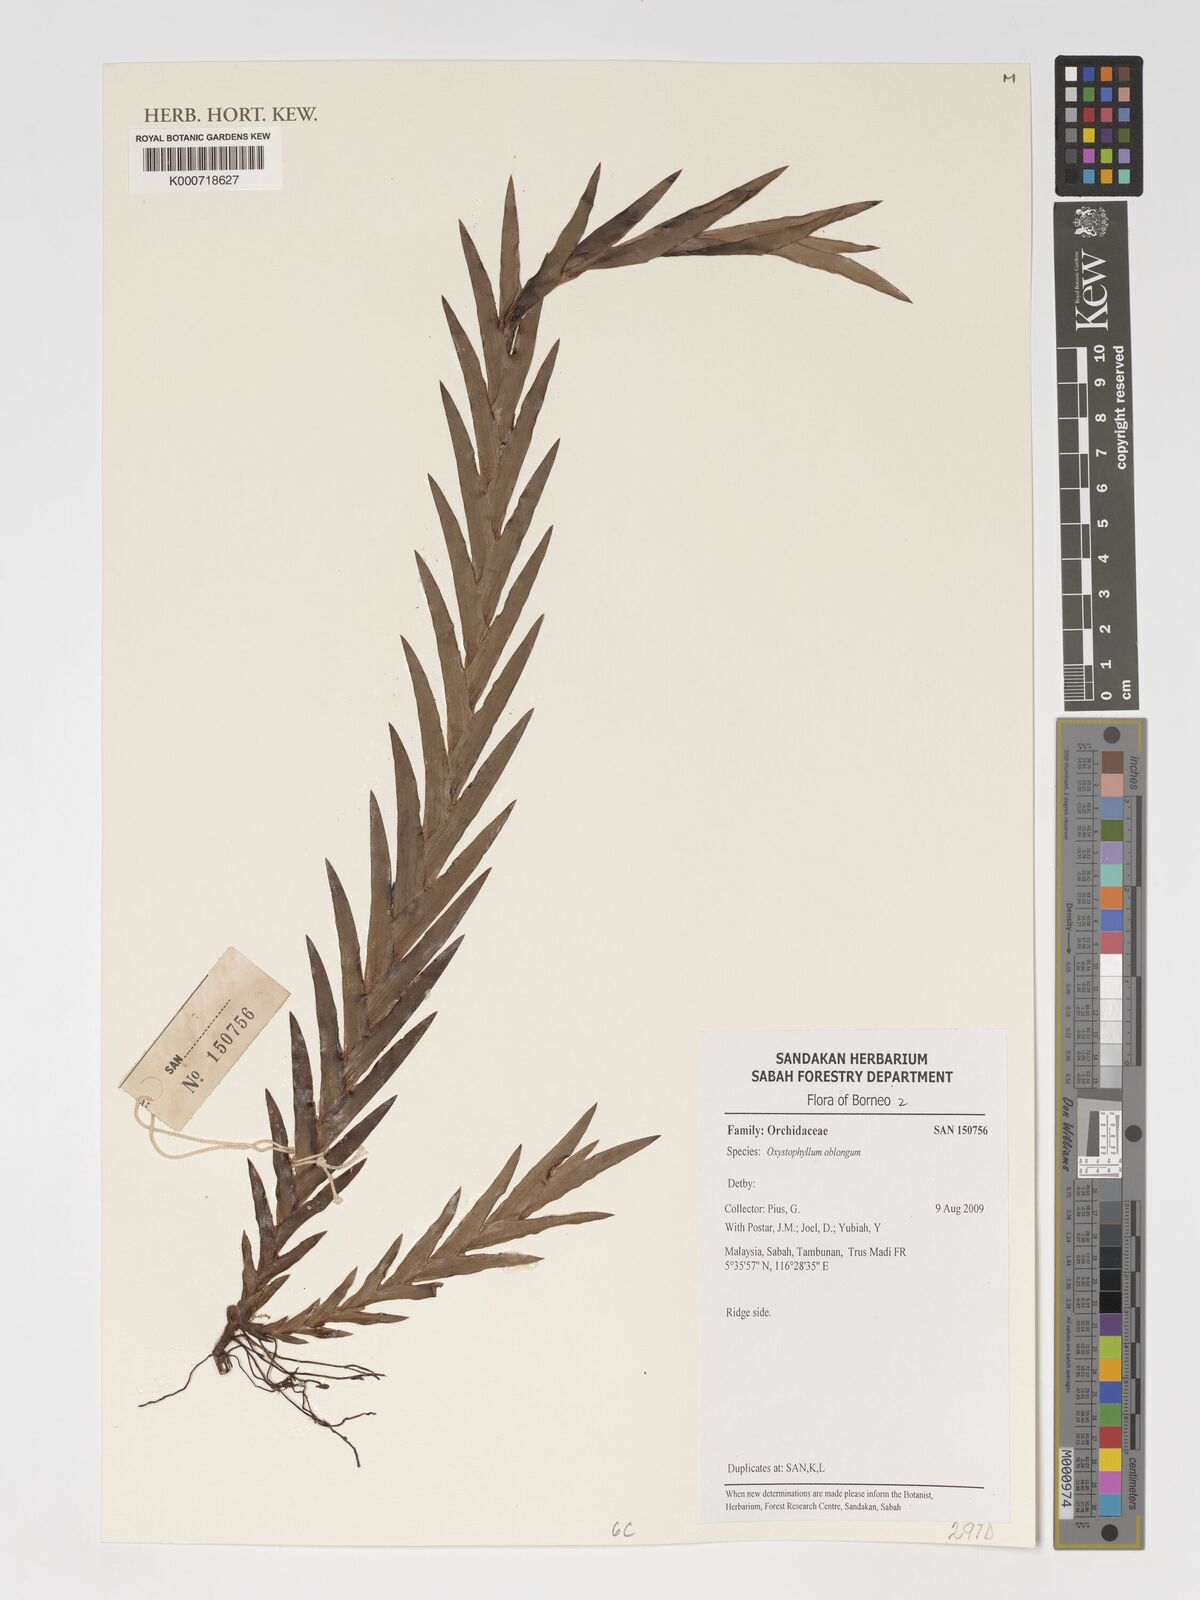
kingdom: Plantae
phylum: Tracheophyta
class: Liliopsida
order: Asparagales
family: Orchidaceae
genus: Oxystophyllum
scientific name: Oxystophyllum oblongum
